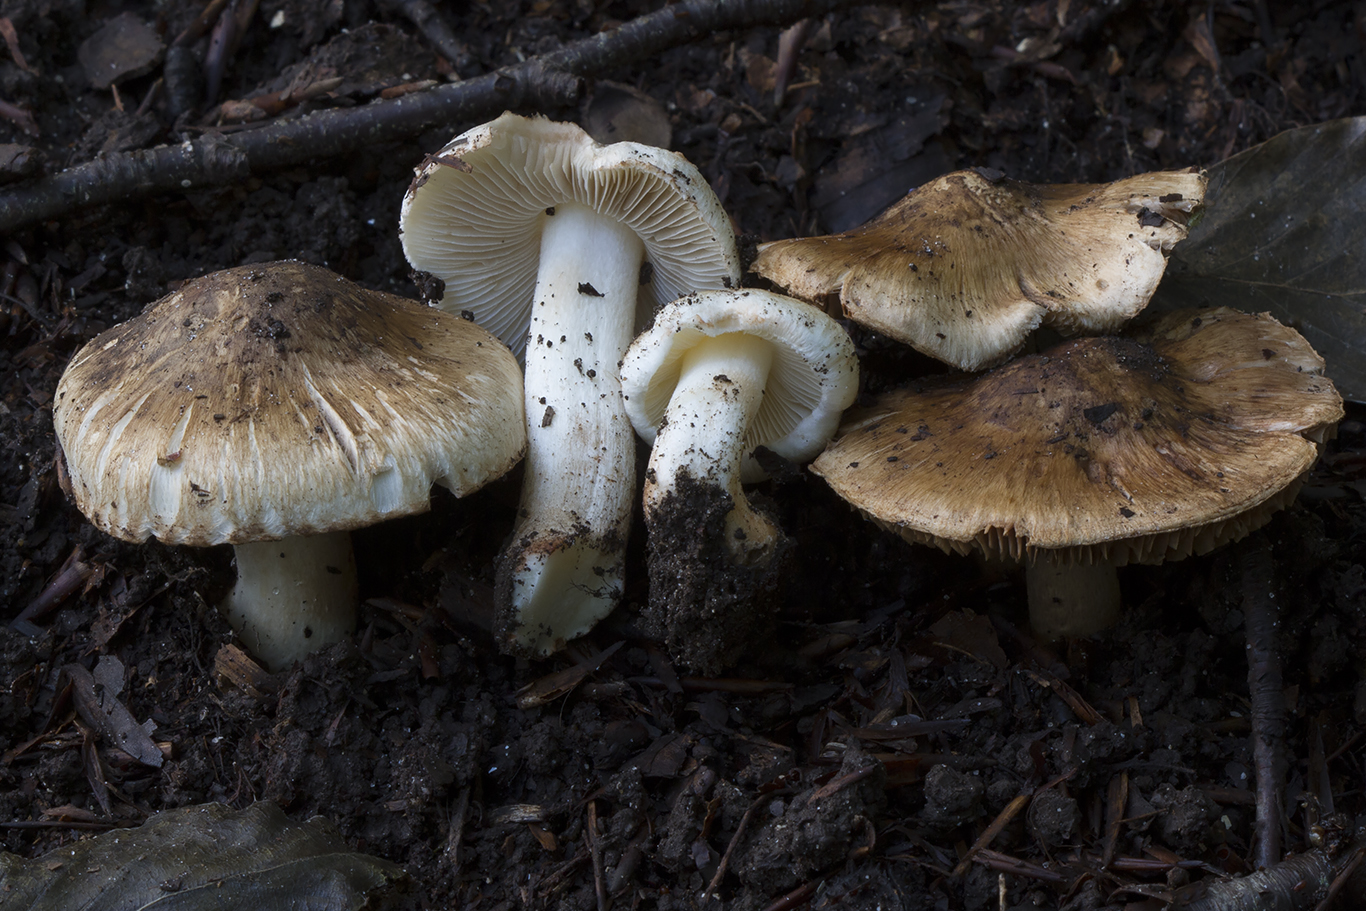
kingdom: Fungi
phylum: Basidiomycota
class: Agaricomycetes
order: Agaricales
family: Inocybaceae
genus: Inocybe
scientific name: Inocybe fraudans
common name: pæreduftende trævlhat
